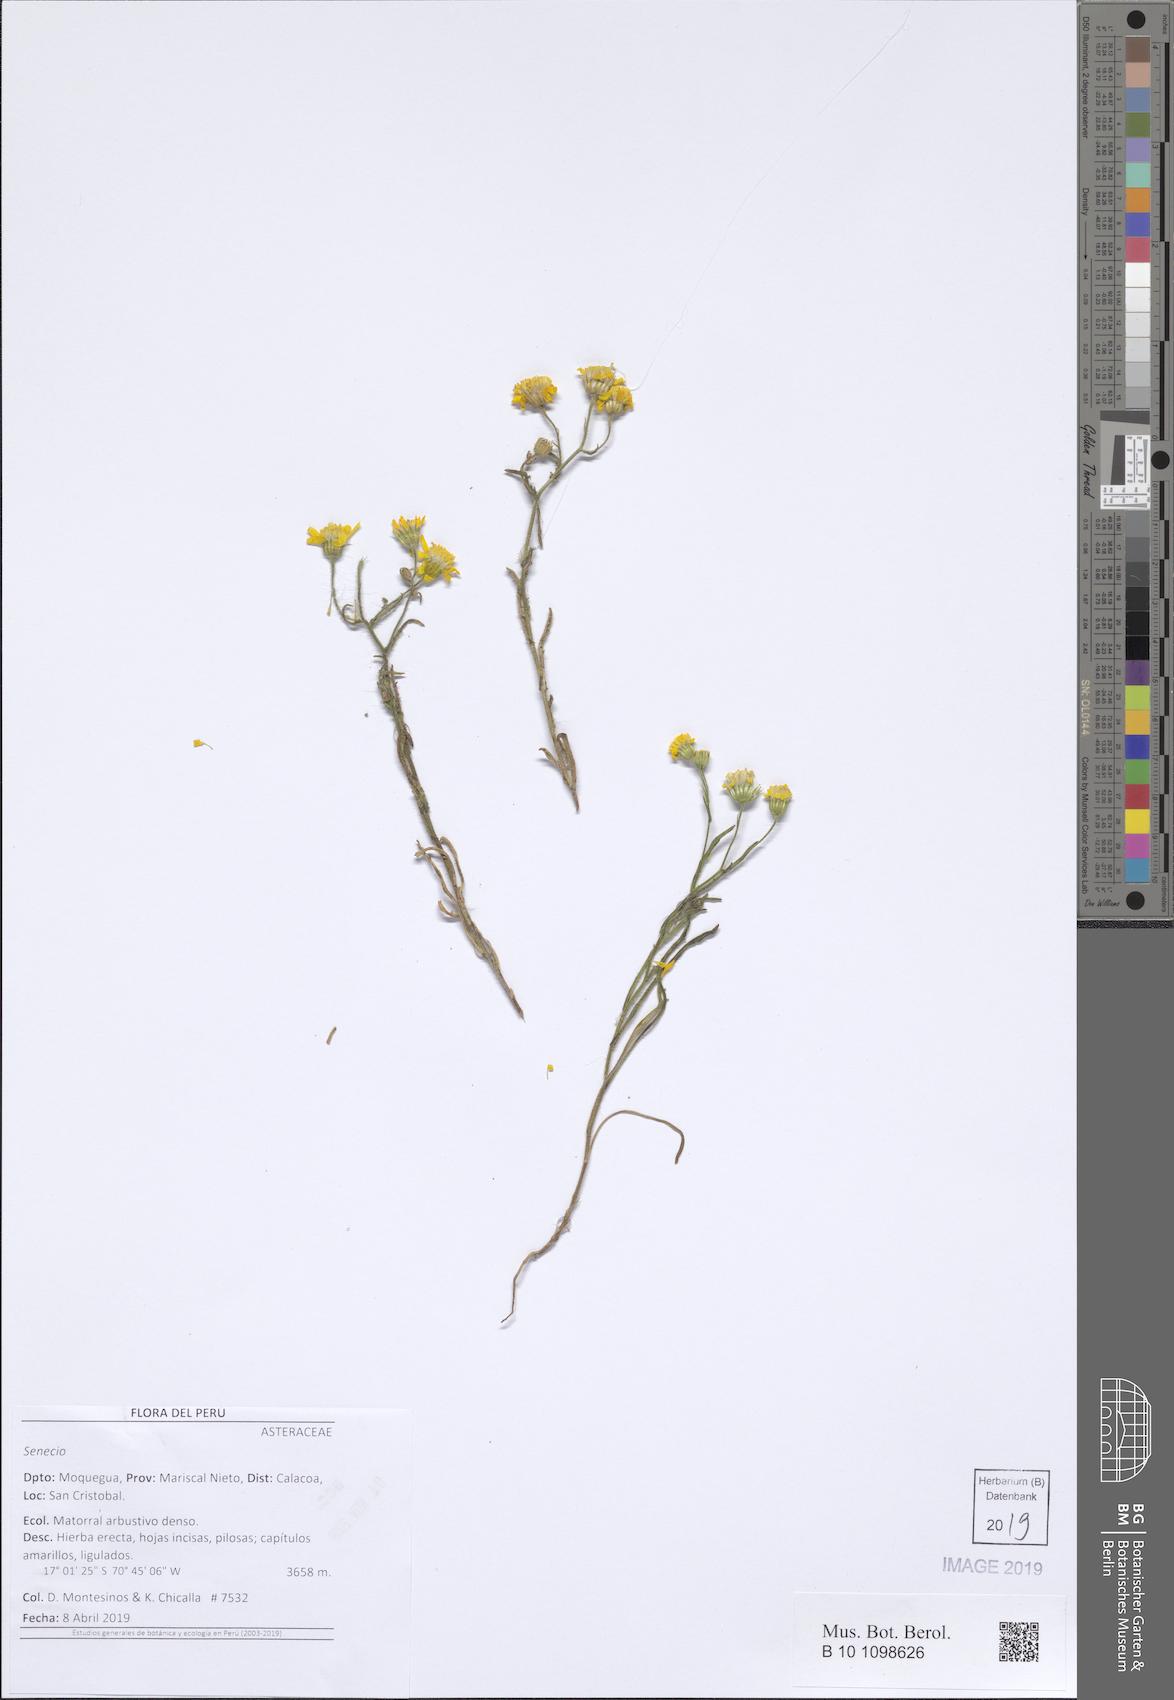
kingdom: Plantae
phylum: Tracheophyta
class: Magnoliopsida
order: Asterales
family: Asteraceae
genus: Senecio
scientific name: Senecio
